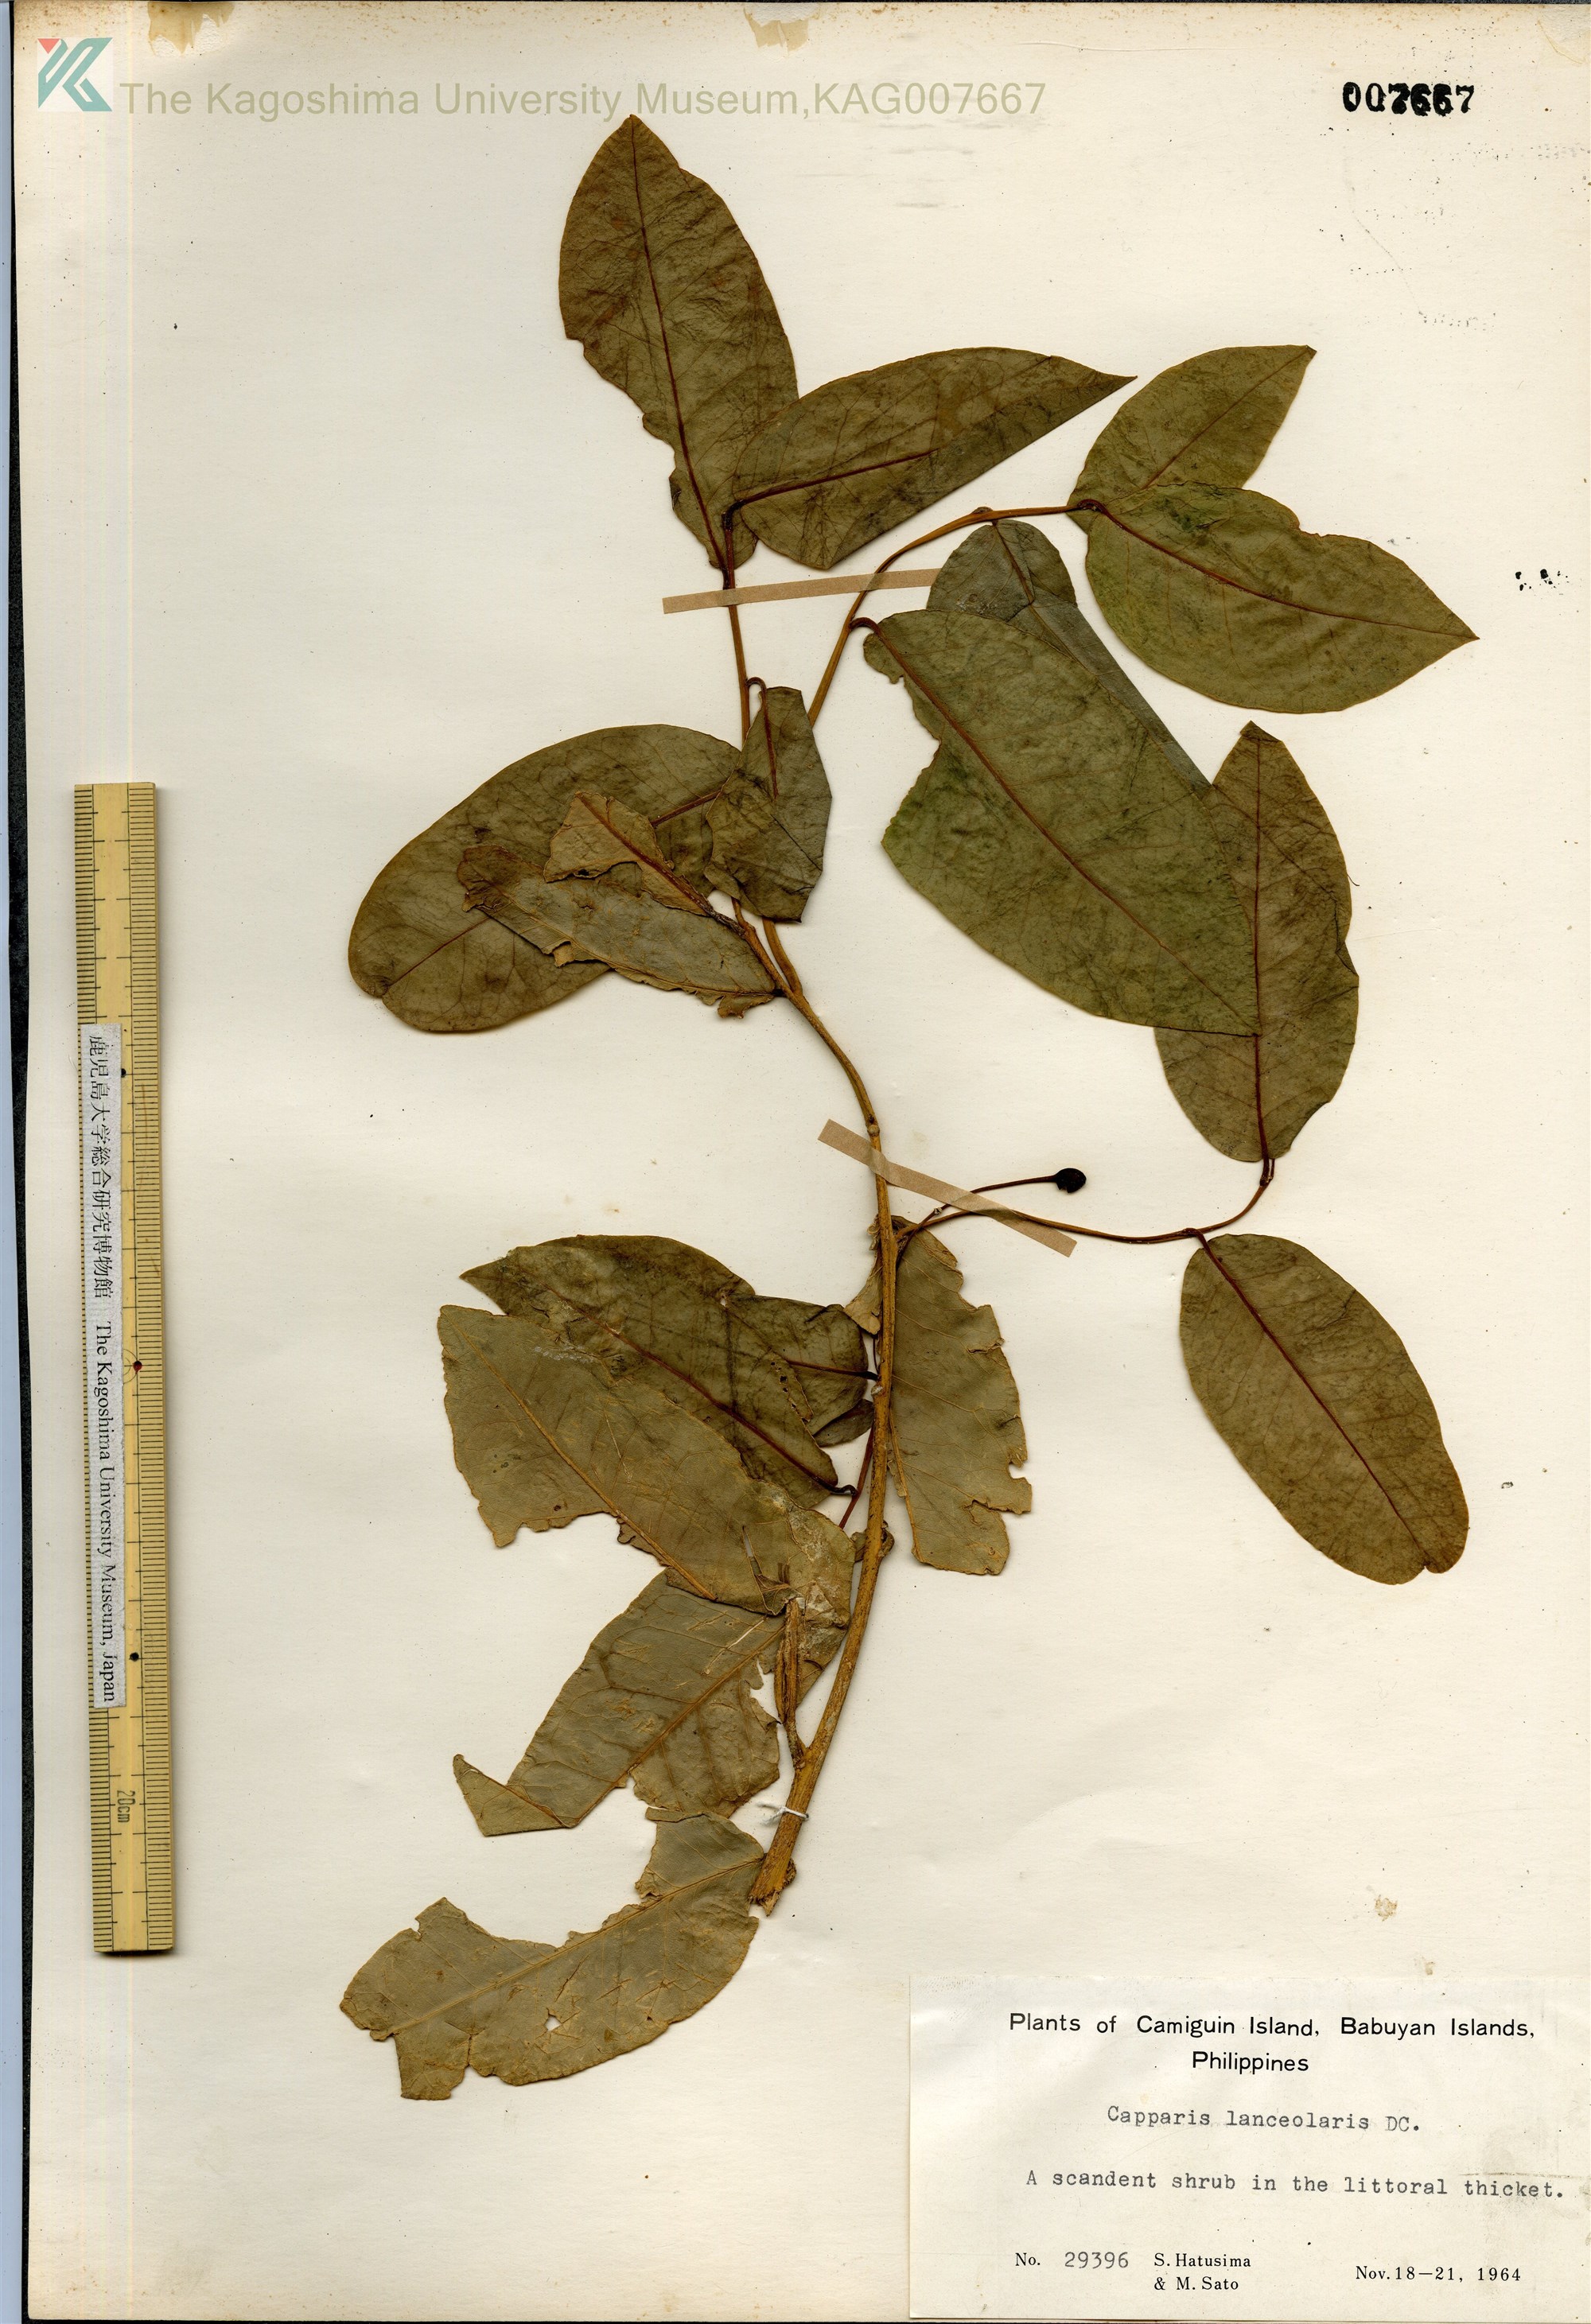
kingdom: Plantae
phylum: Tracheophyta
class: Magnoliopsida
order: Brassicales
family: Capparaceae
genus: Capparis
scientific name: Capparis lanceolaris
